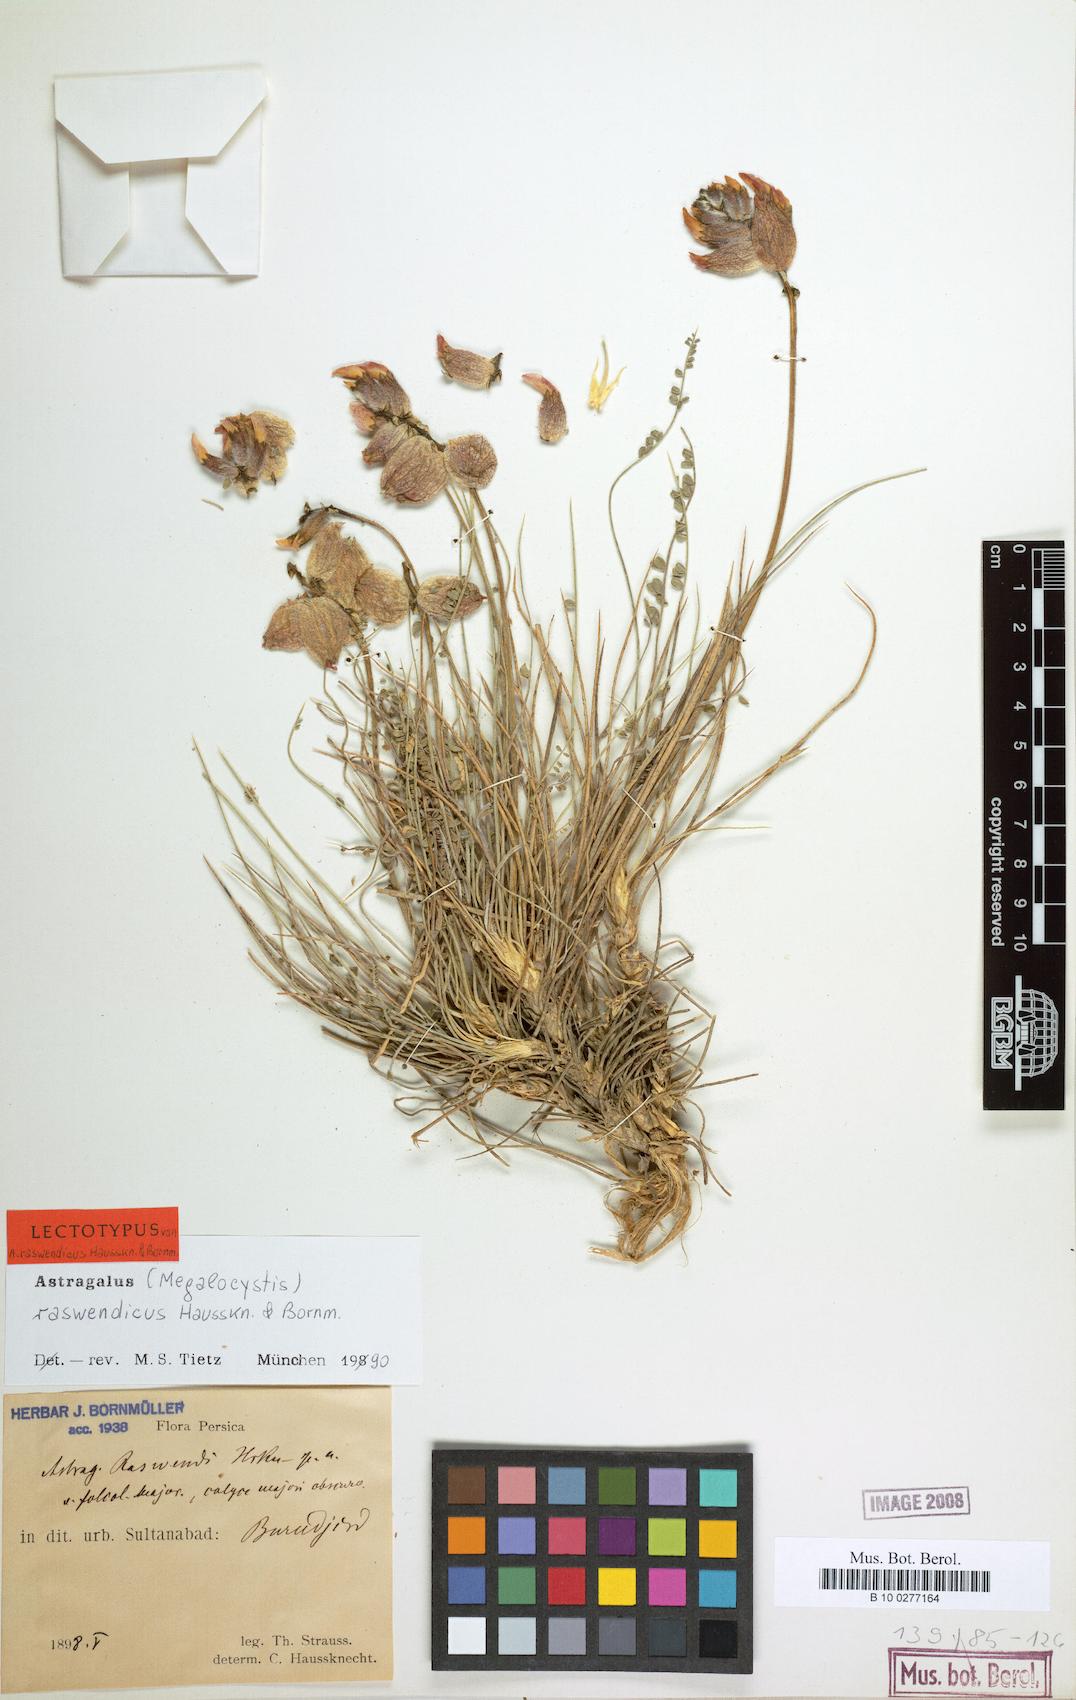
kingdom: Plantae
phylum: Tracheophyta
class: Magnoliopsida
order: Fabales
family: Fabaceae
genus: Astragalus
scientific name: Astragalus raswendicus
